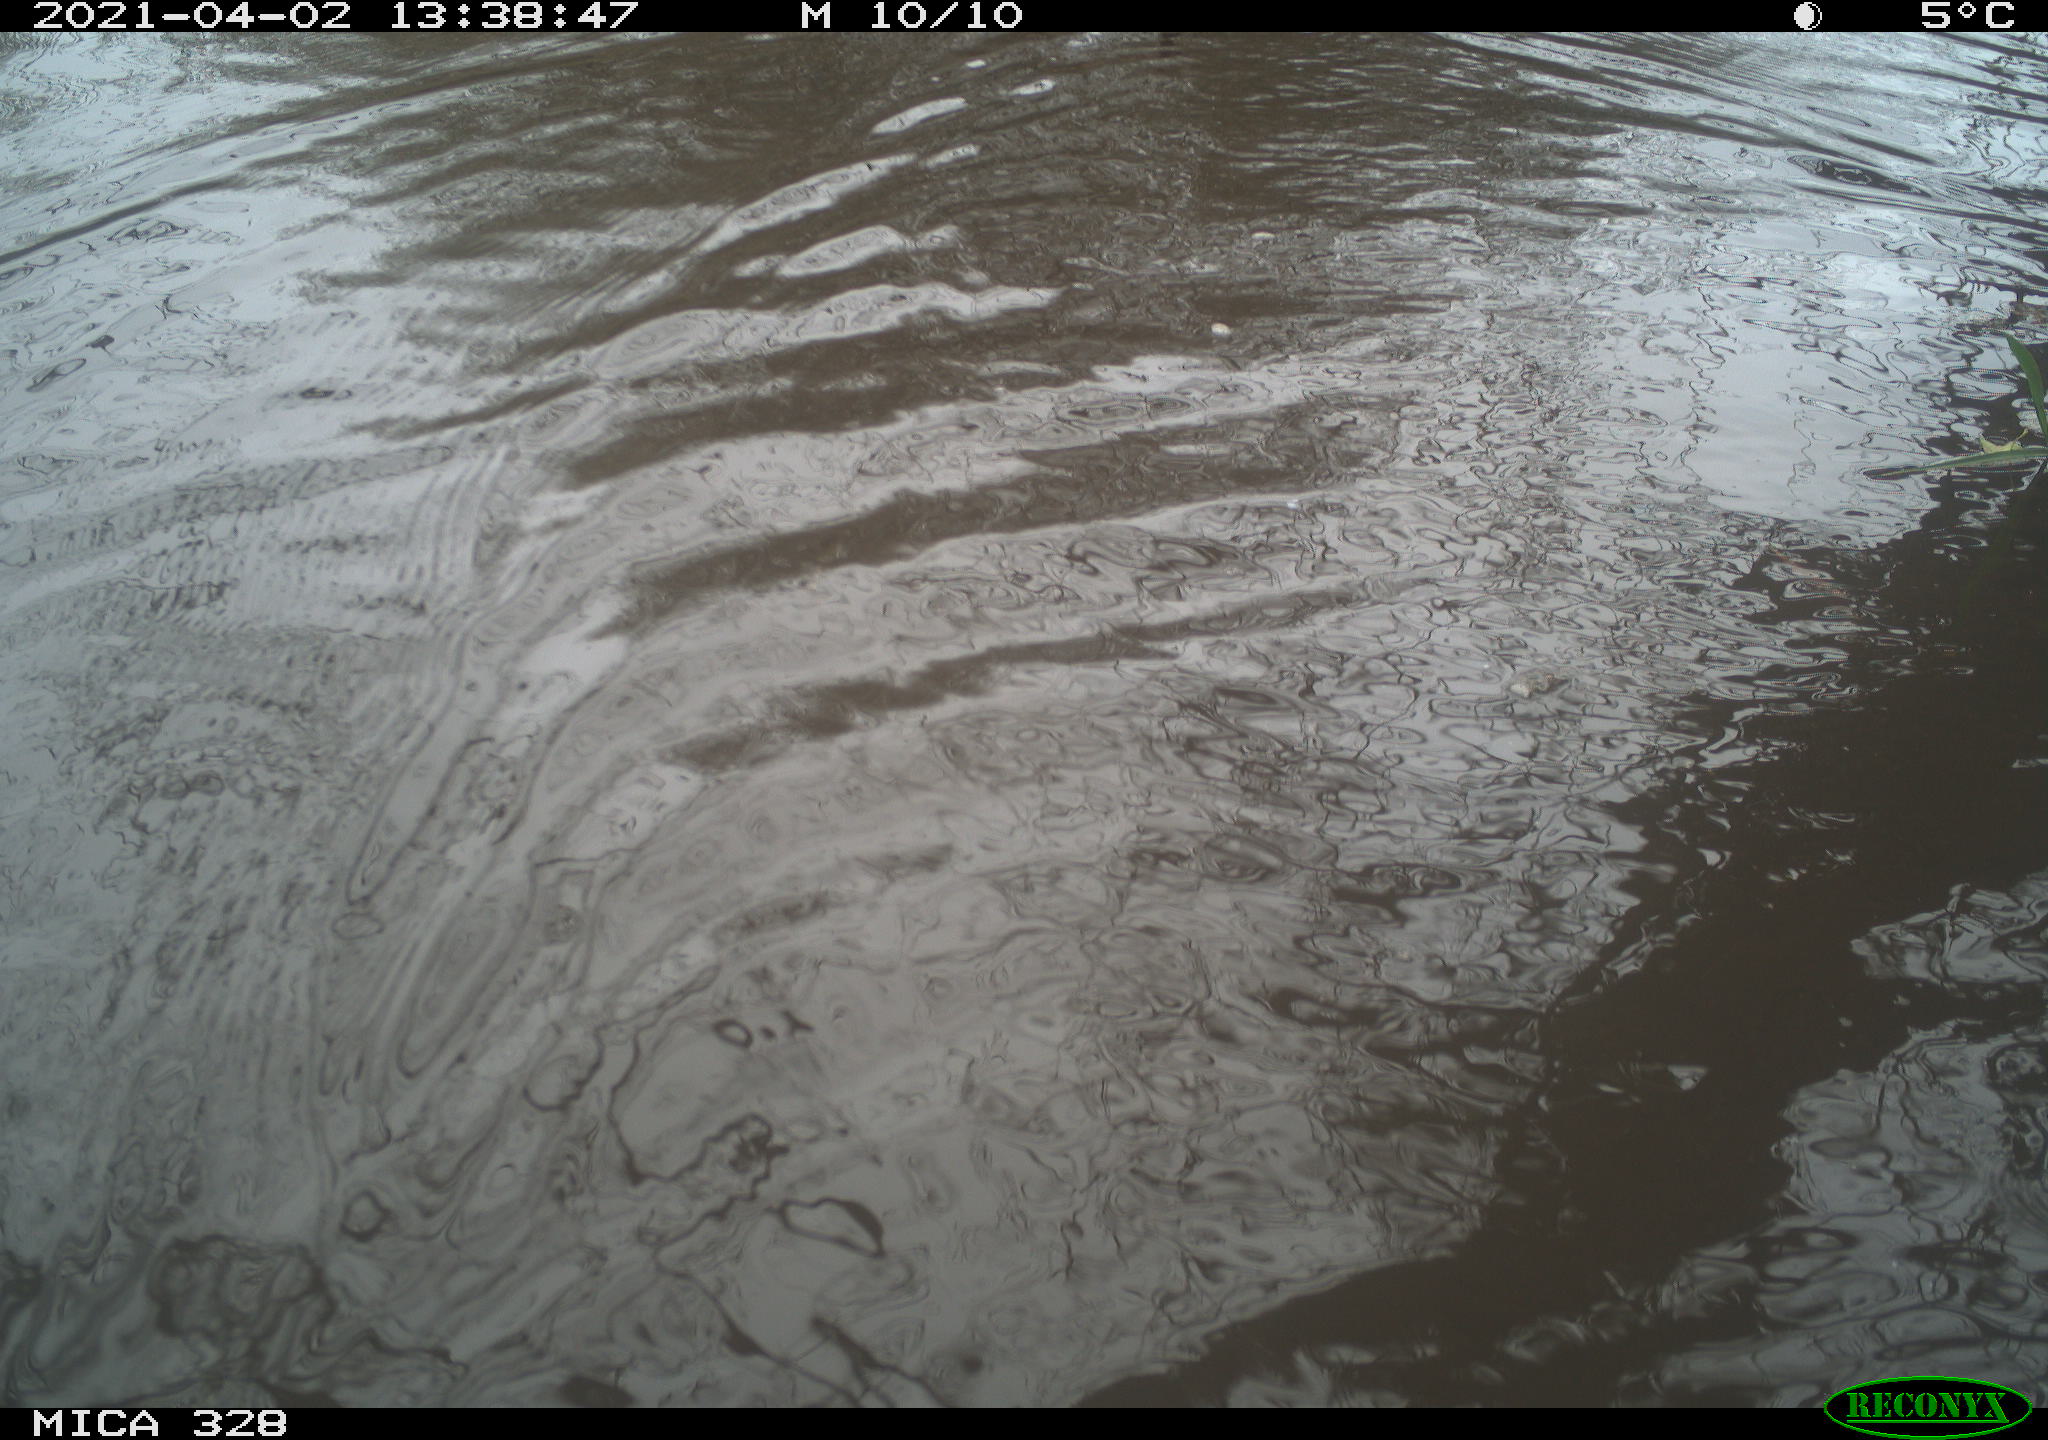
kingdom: Animalia
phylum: Chordata
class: Aves
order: Anseriformes
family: Anatidae
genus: Anas
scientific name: Anas platyrhynchos
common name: Mallard
